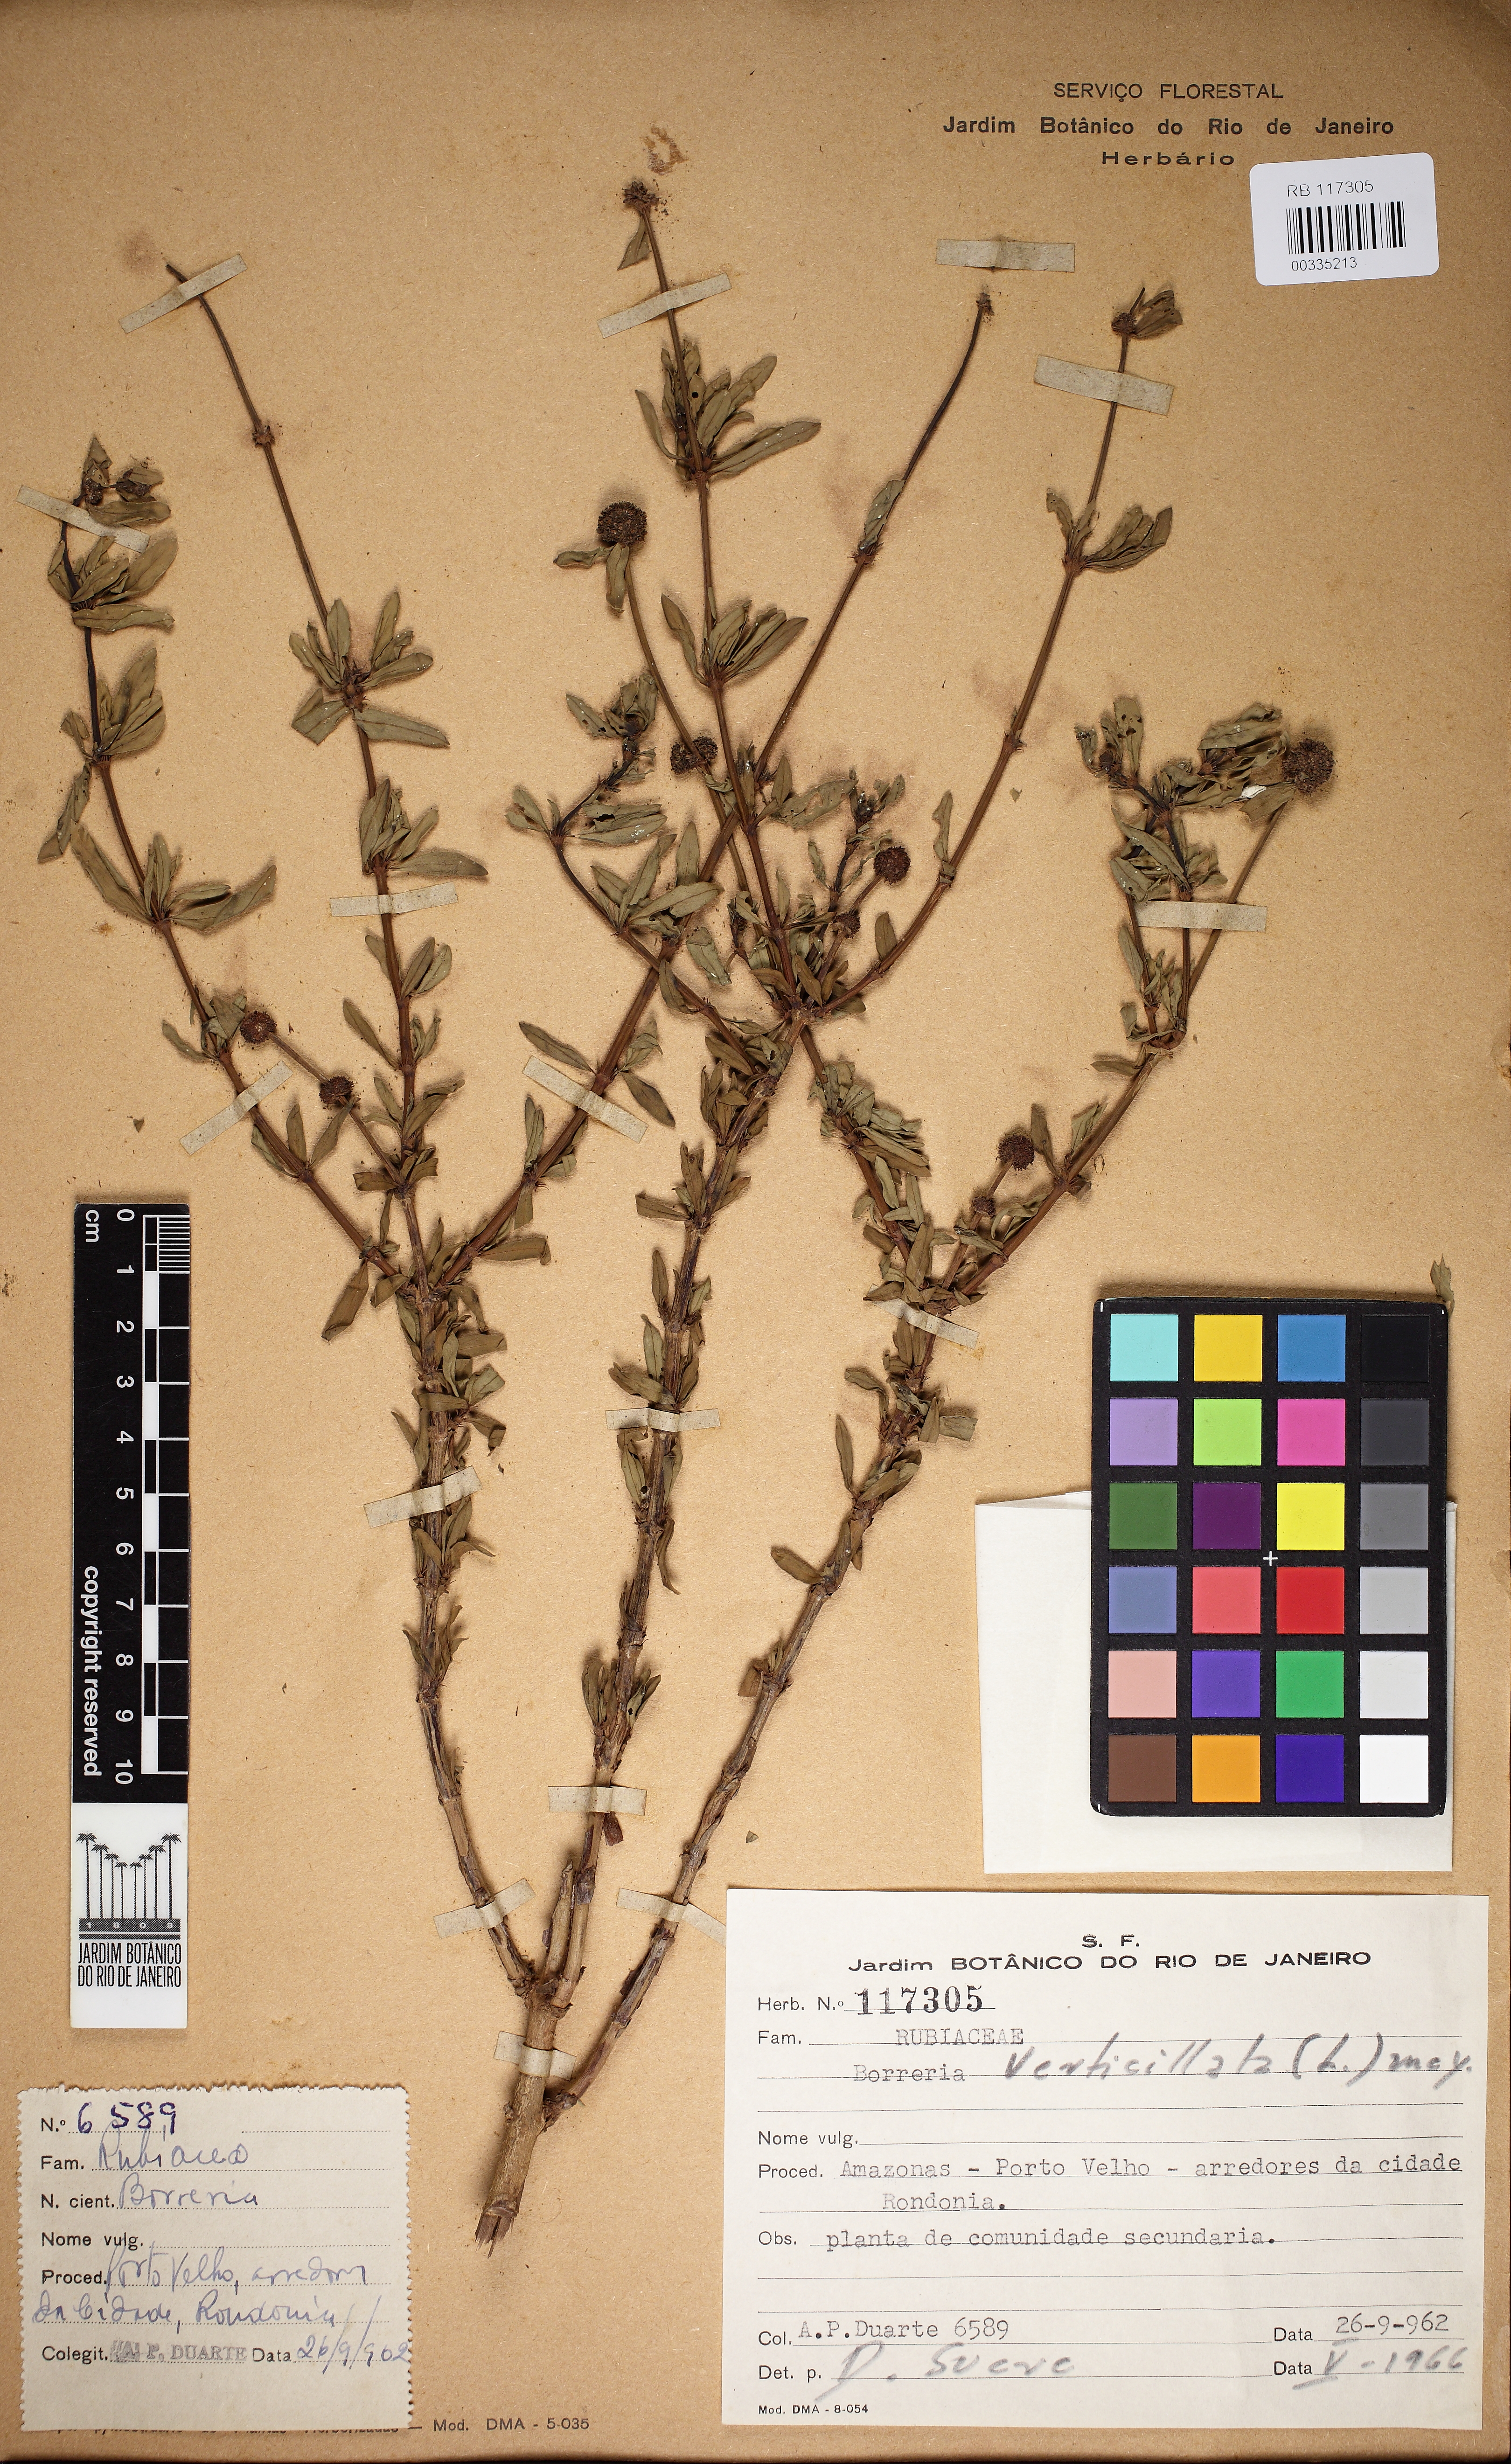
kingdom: Plantae
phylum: Tracheophyta
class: Magnoliopsida
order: Gentianales
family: Rubiaceae
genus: Spermacoce
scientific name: Spermacoce verticillata
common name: Shrubby false buttonweed
